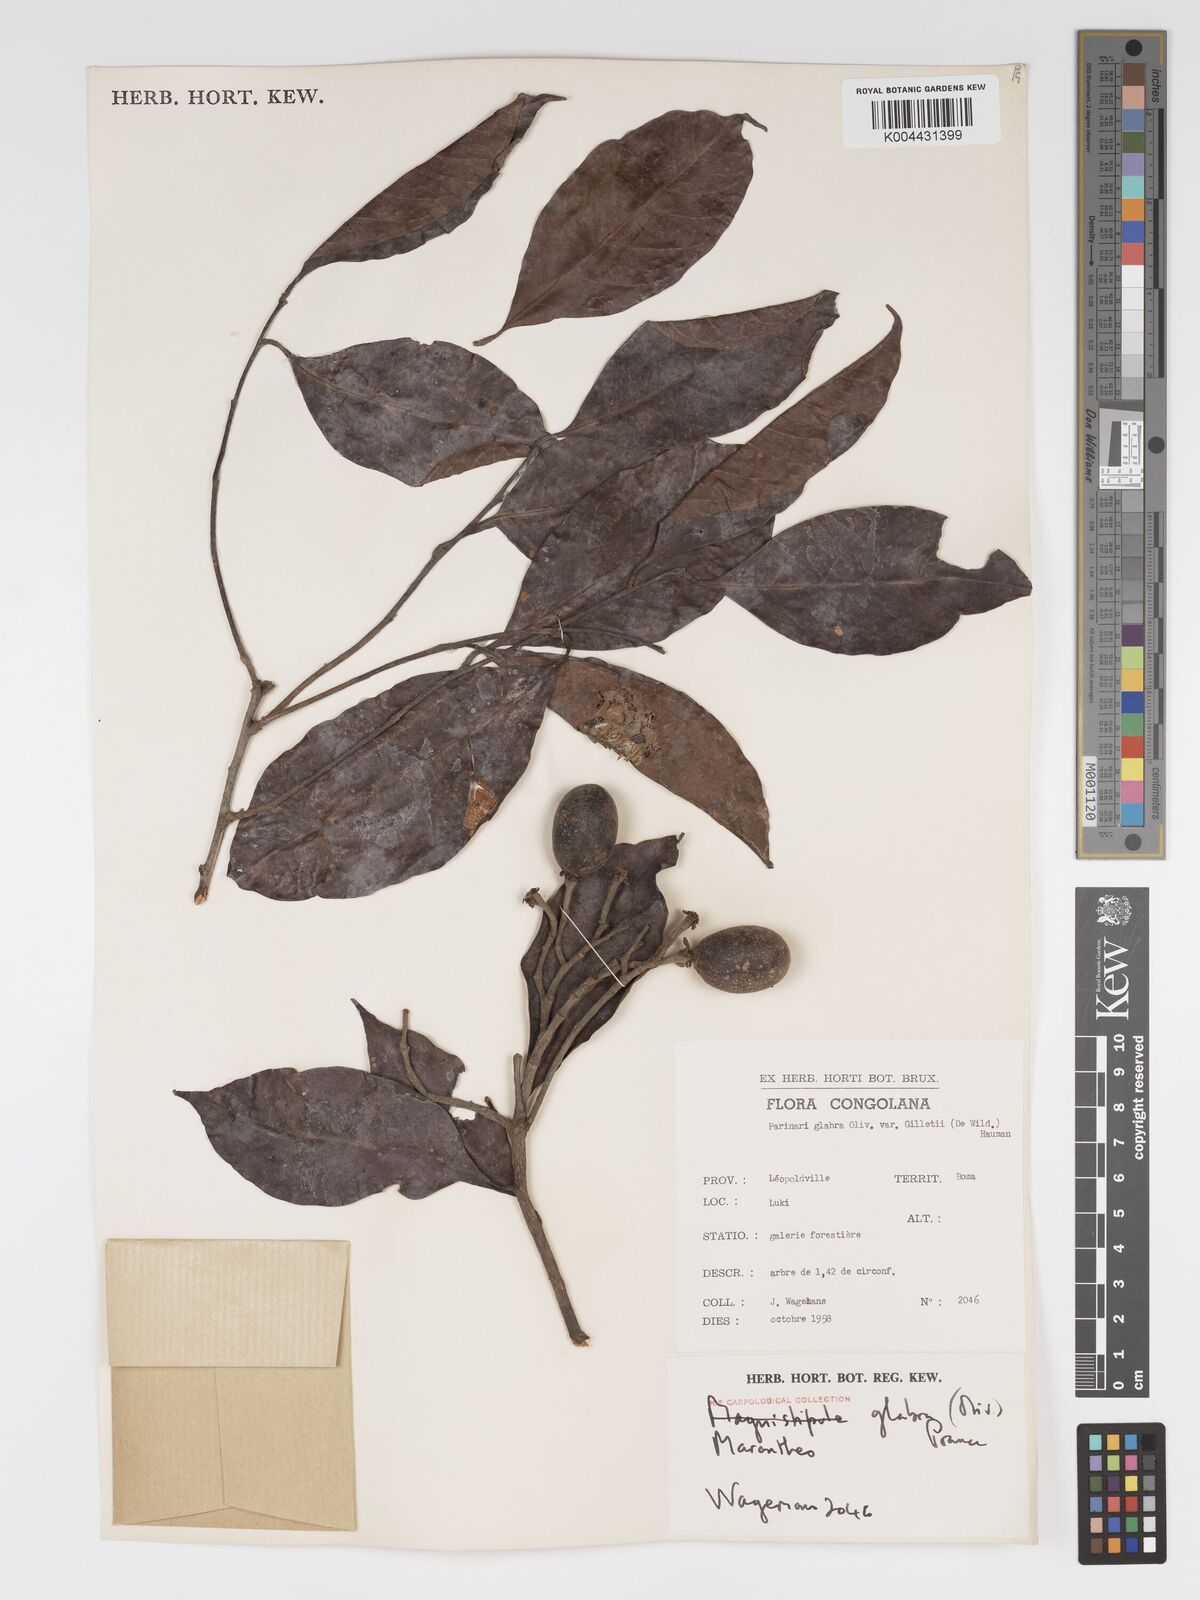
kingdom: Plantae
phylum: Tracheophyta
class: Magnoliopsida
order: Malpighiales
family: Chrysobalanaceae
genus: Maranthes
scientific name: Maranthes glabra
